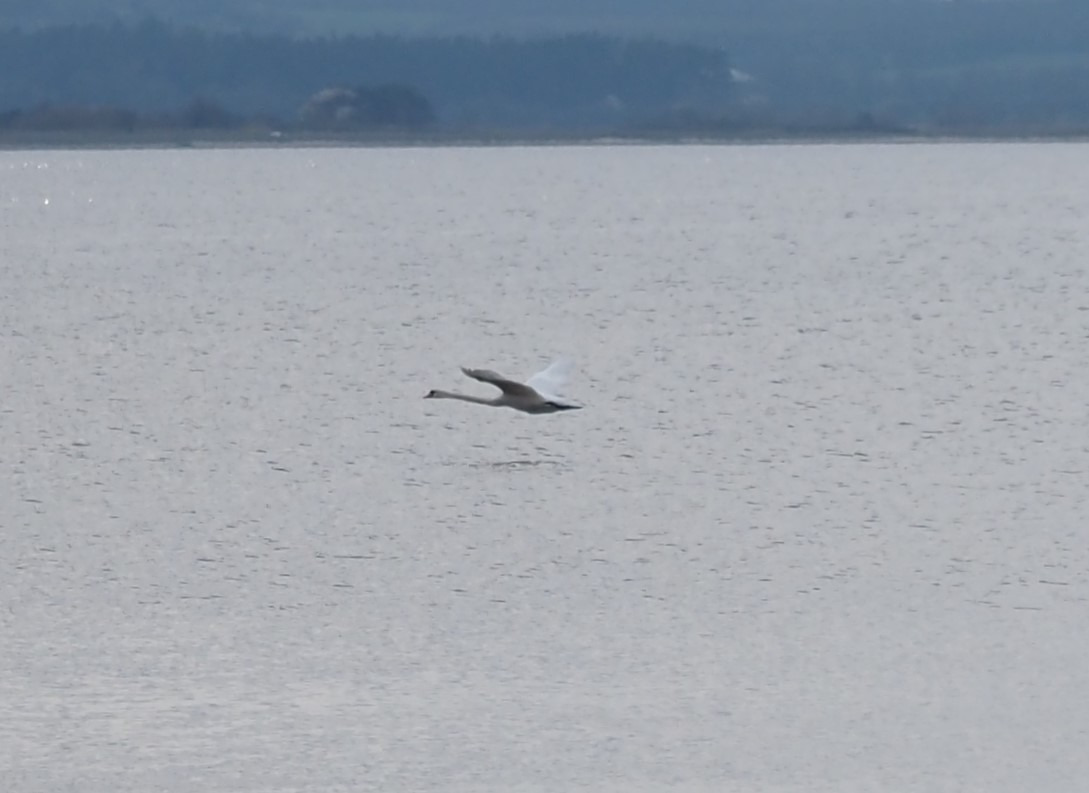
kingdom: Animalia
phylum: Chordata
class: Aves
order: Anseriformes
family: Anatidae
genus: Cygnus
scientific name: Cygnus olor
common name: Knopsvane
